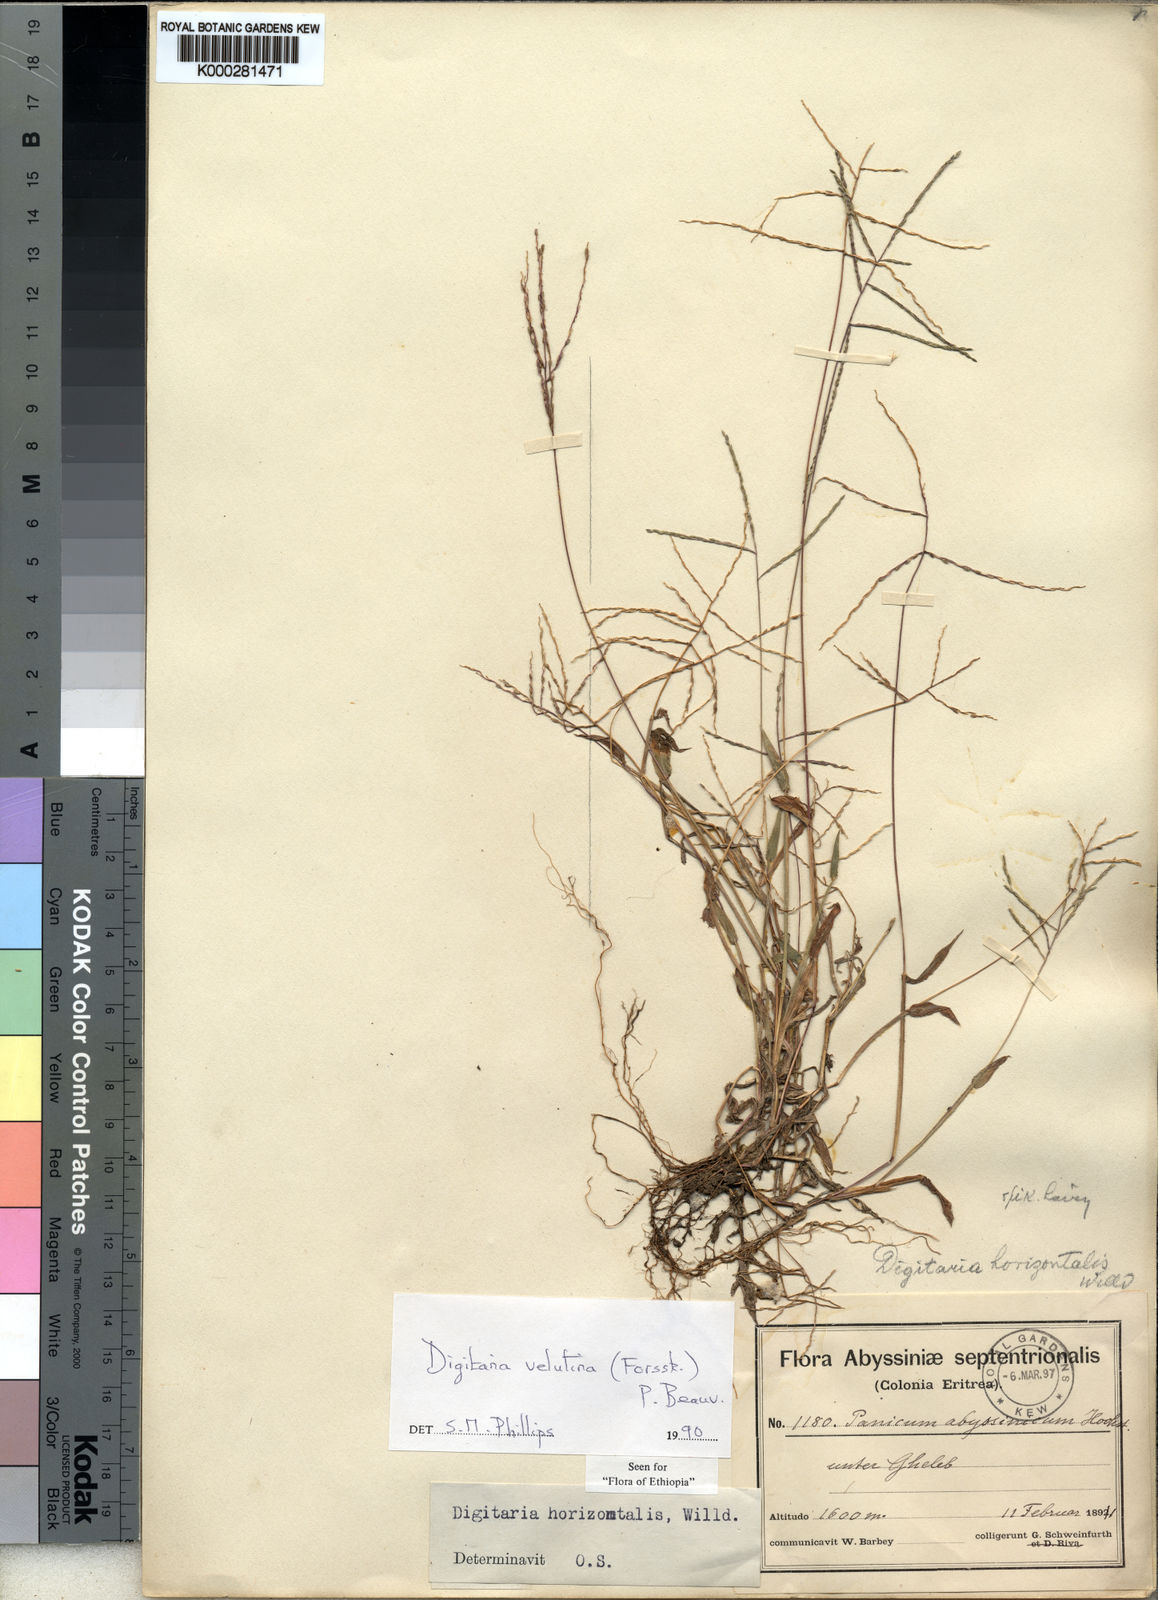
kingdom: Plantae
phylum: Tracheophyta
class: Liliopsida
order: Poales
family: Poaceae
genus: Digitaria
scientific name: Digitaria velutina
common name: Long-plume finger grass
